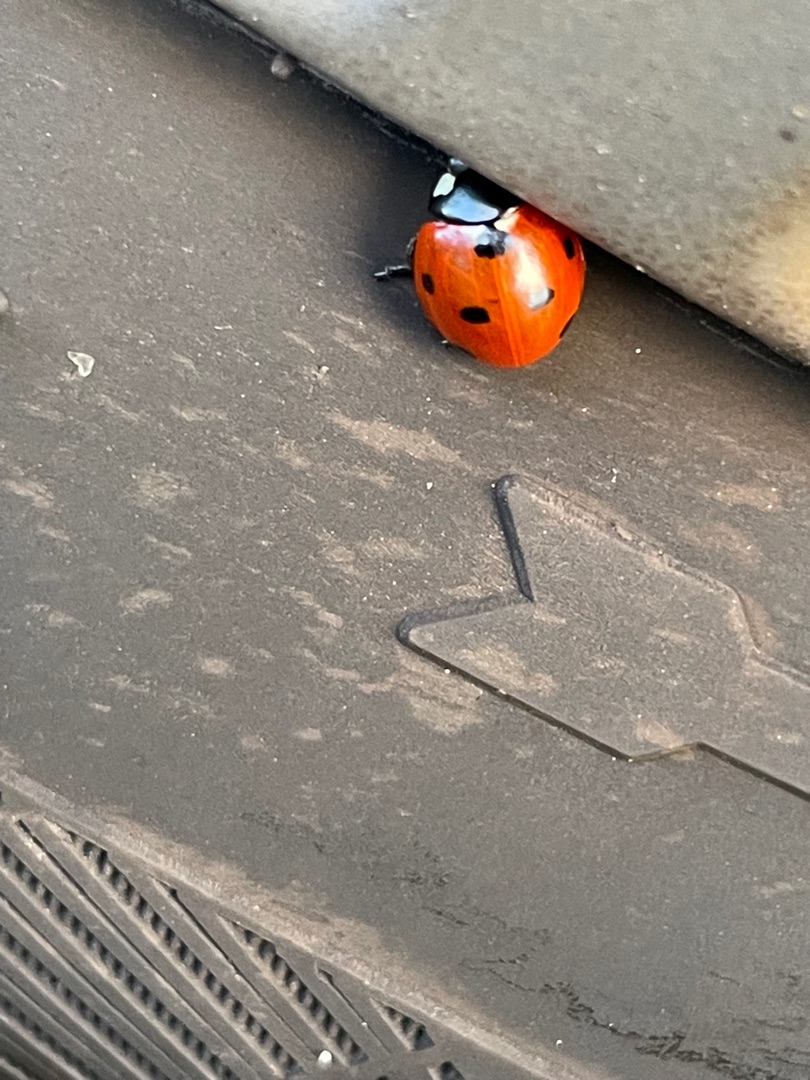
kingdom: Animalia
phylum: Arthropoda
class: Insecta
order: Coleoptera
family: Coccinellidae
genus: Coccinella
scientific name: Coccinella septempunctata
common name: Syvplettet mariehøne
